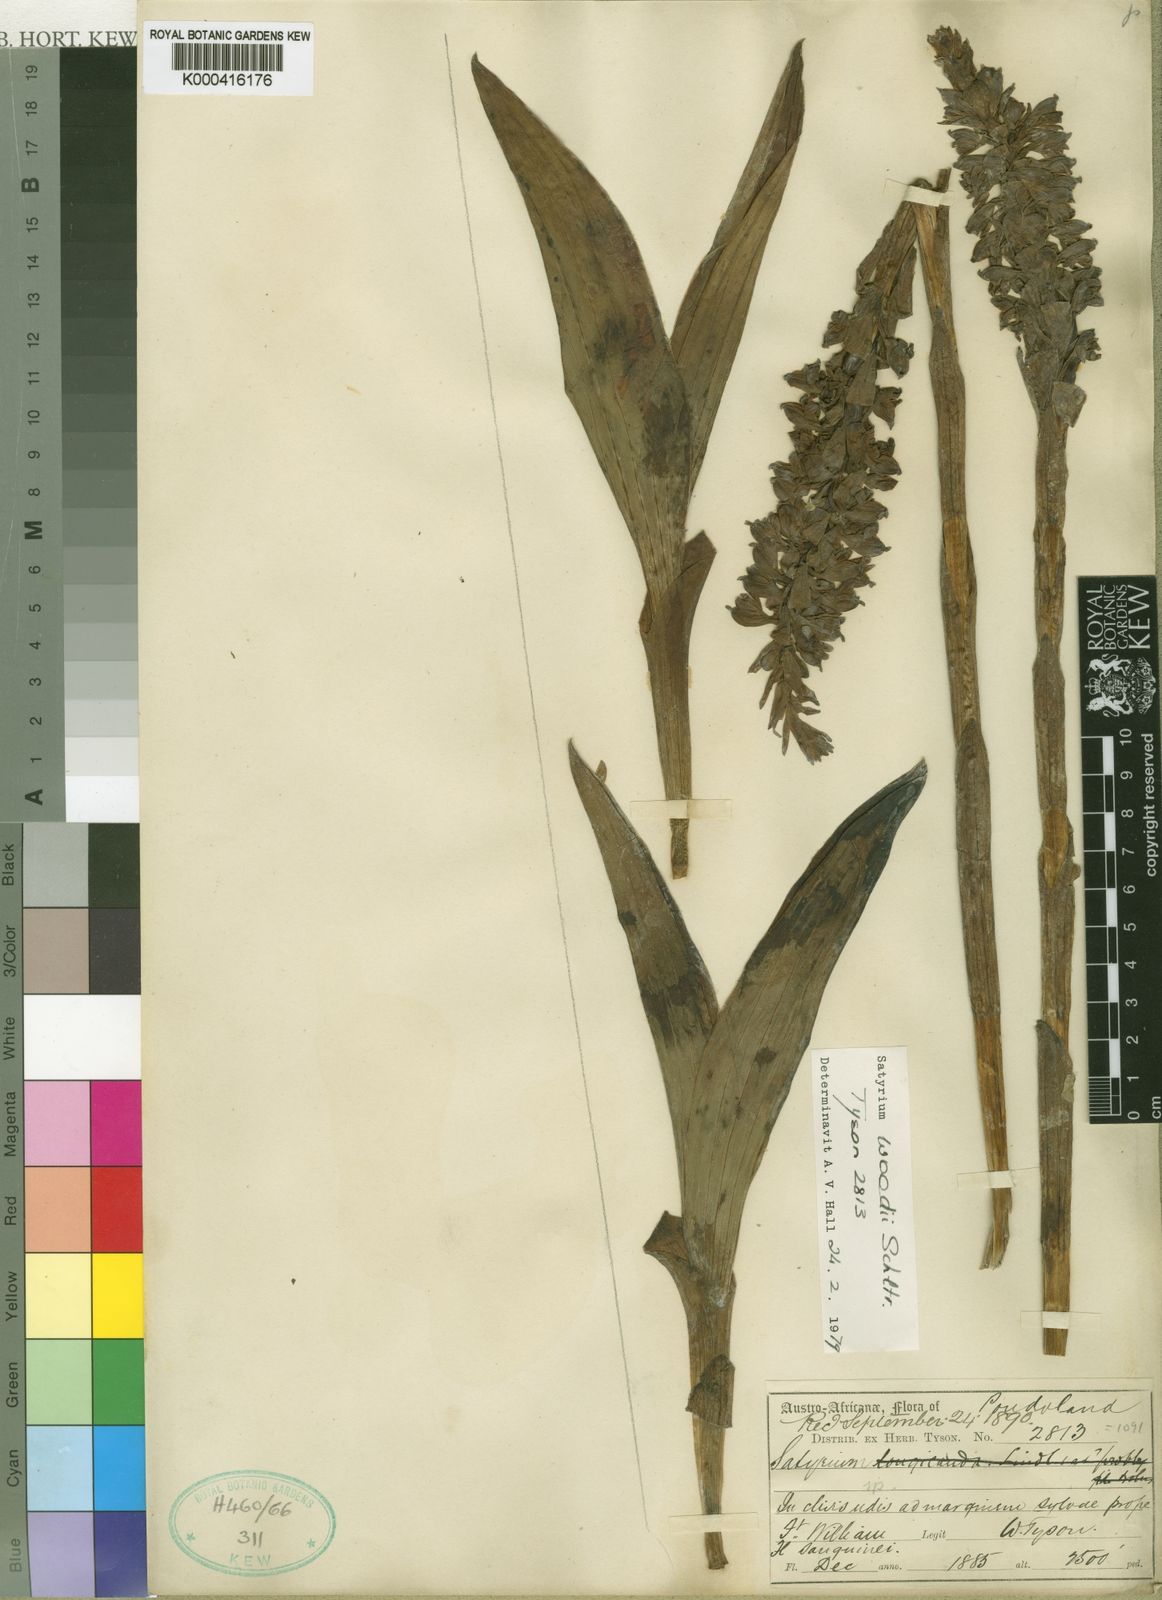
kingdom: Plantae
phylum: Tracheophyta
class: Liliopsida
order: Asparagales
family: Orchidaceae
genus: Satyrium
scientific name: Satyrium neglectum
